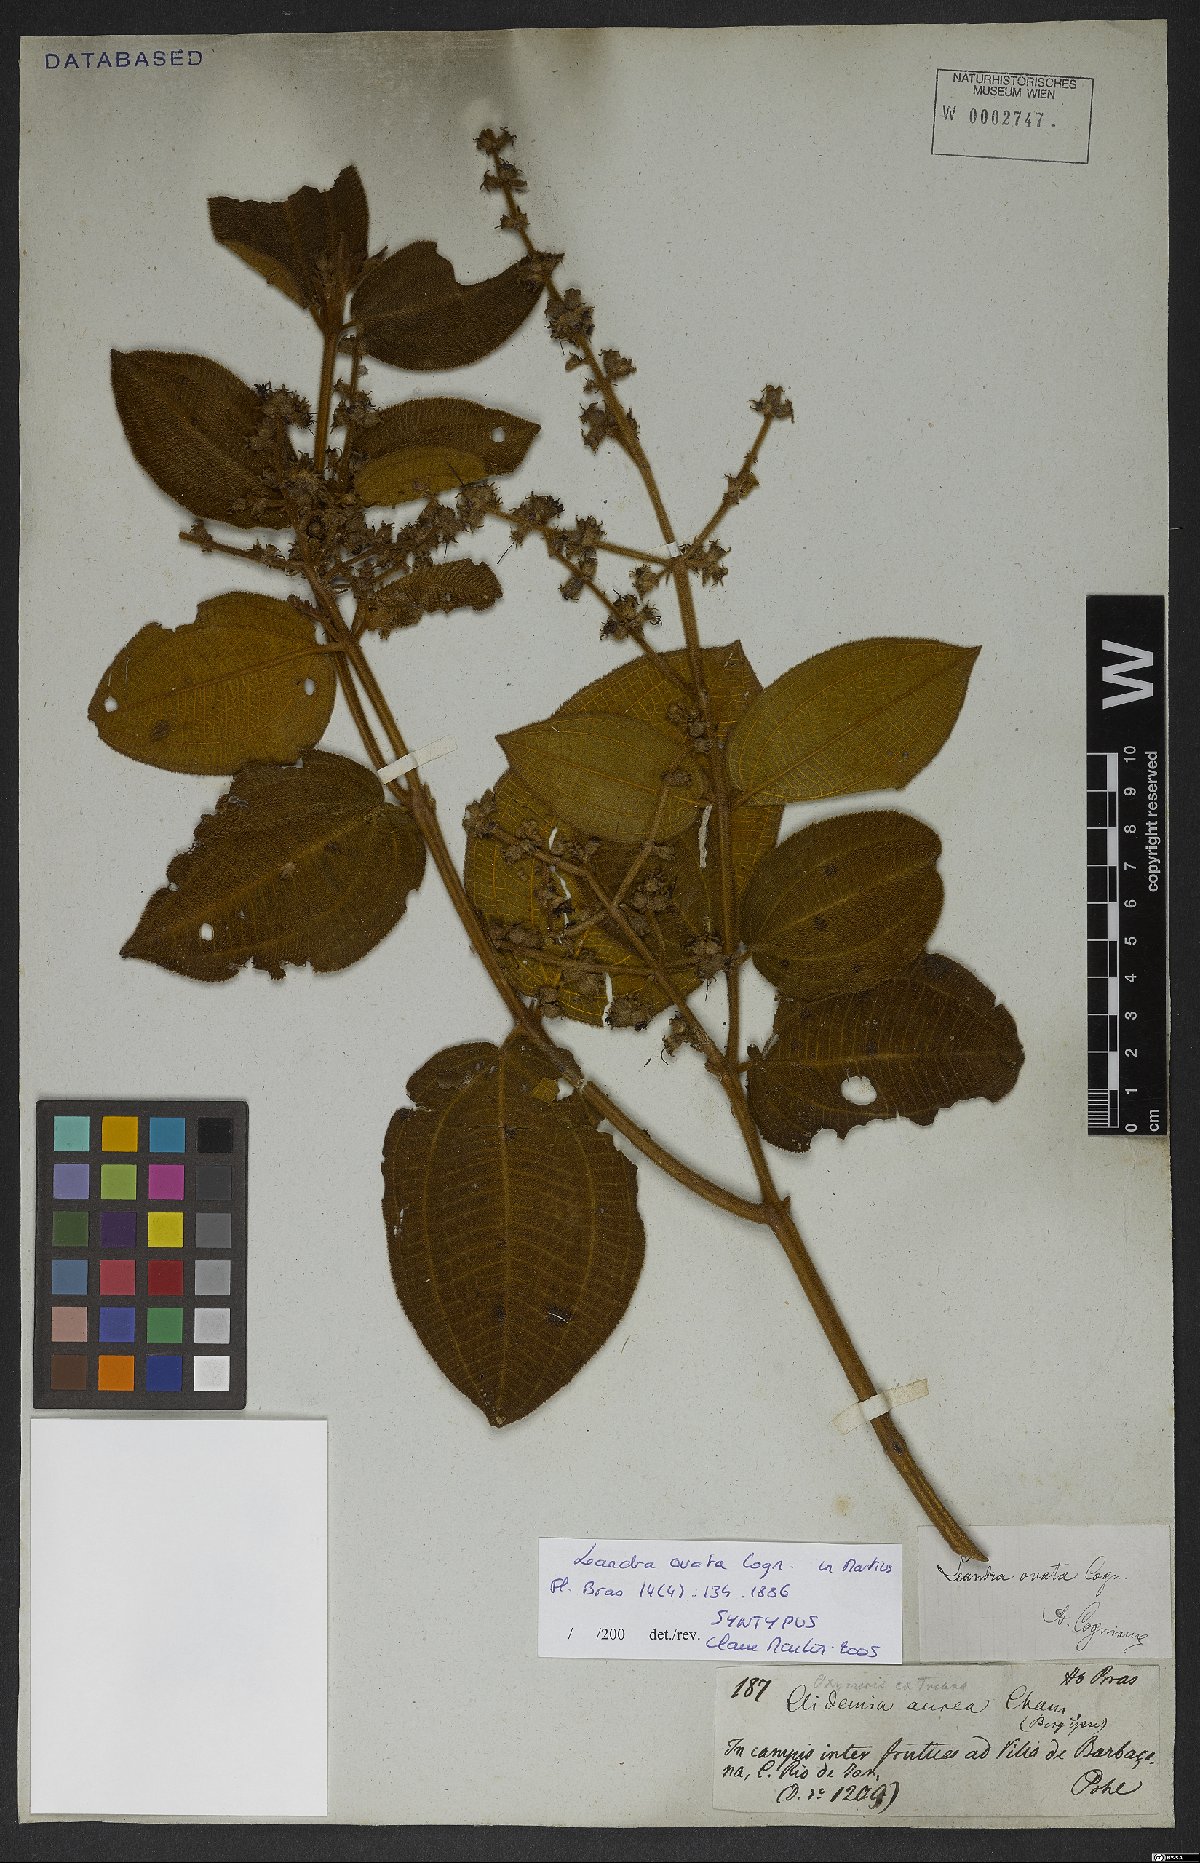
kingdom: Plantae
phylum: Tracheophyta
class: Magnoliopsida
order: Myrtales
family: Melastomataceae
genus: Miconia
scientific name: Miconia leaovata
